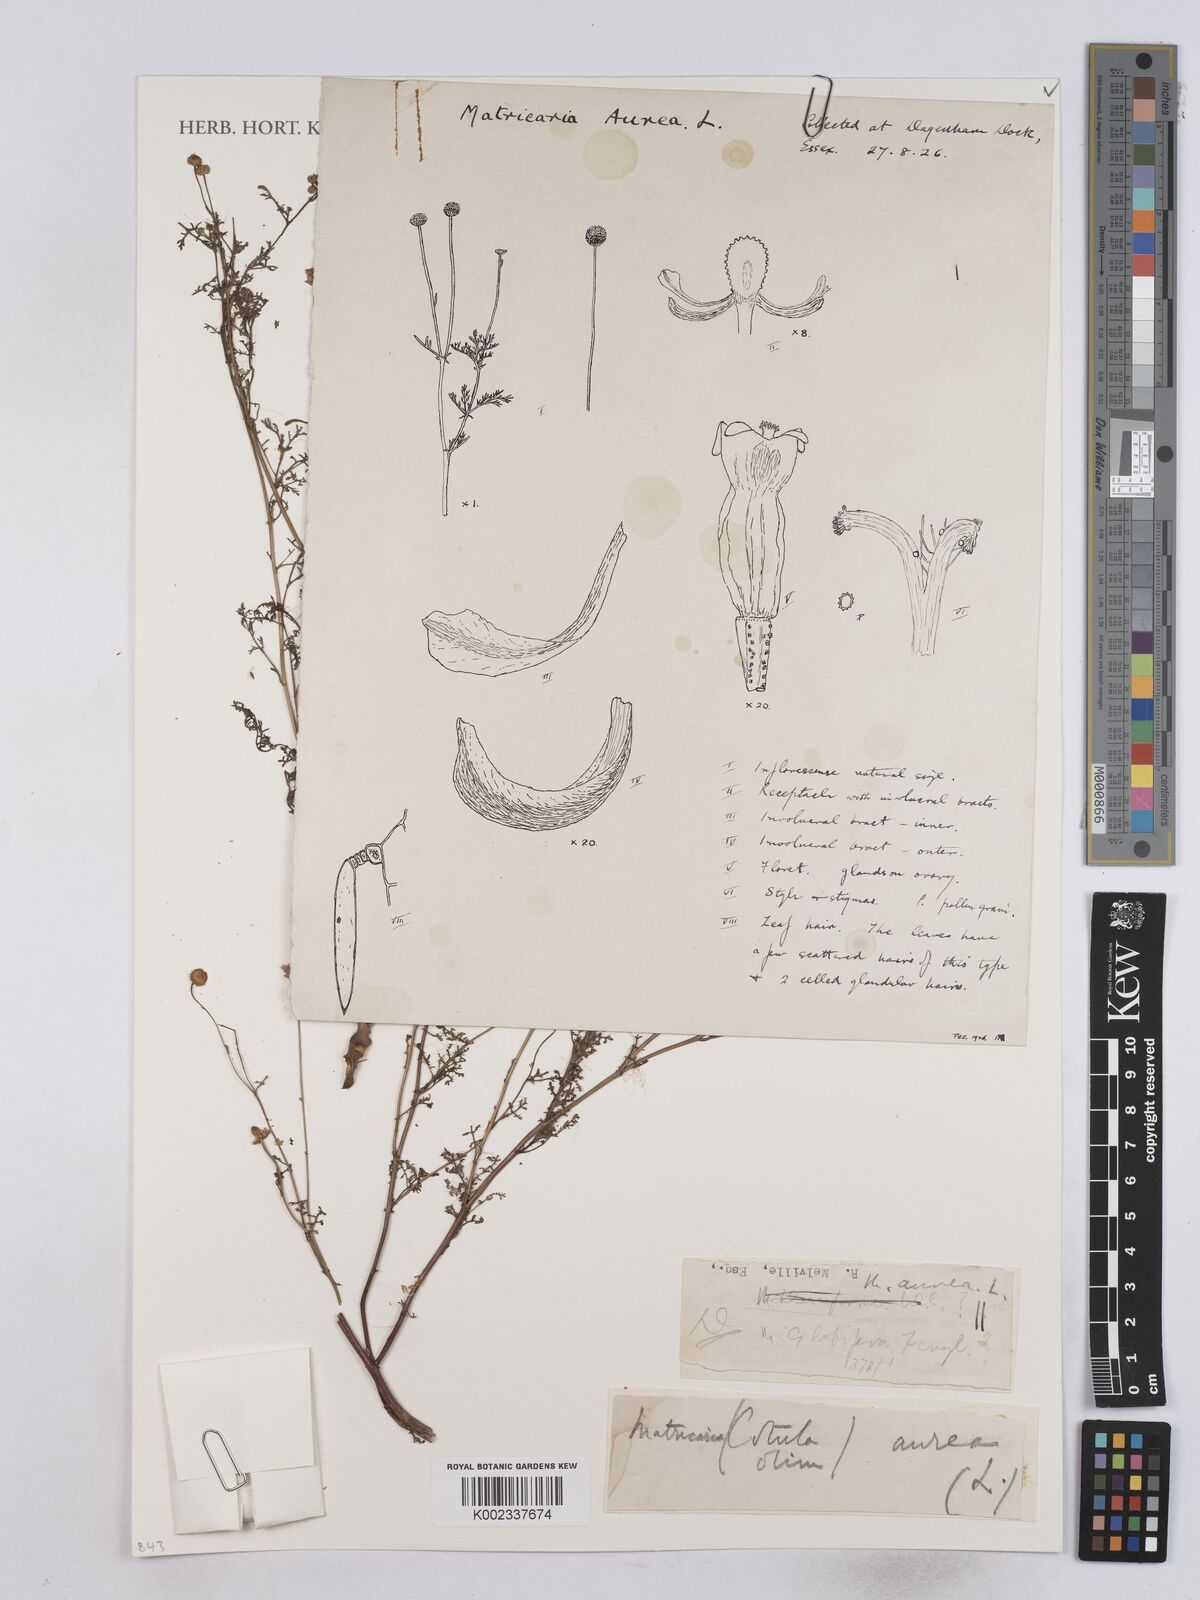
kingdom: Plantae
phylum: Tracheophyta
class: Magnoliopsida
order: Asterales
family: Asteraceae
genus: Matricaria
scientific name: Matricaria aurea
